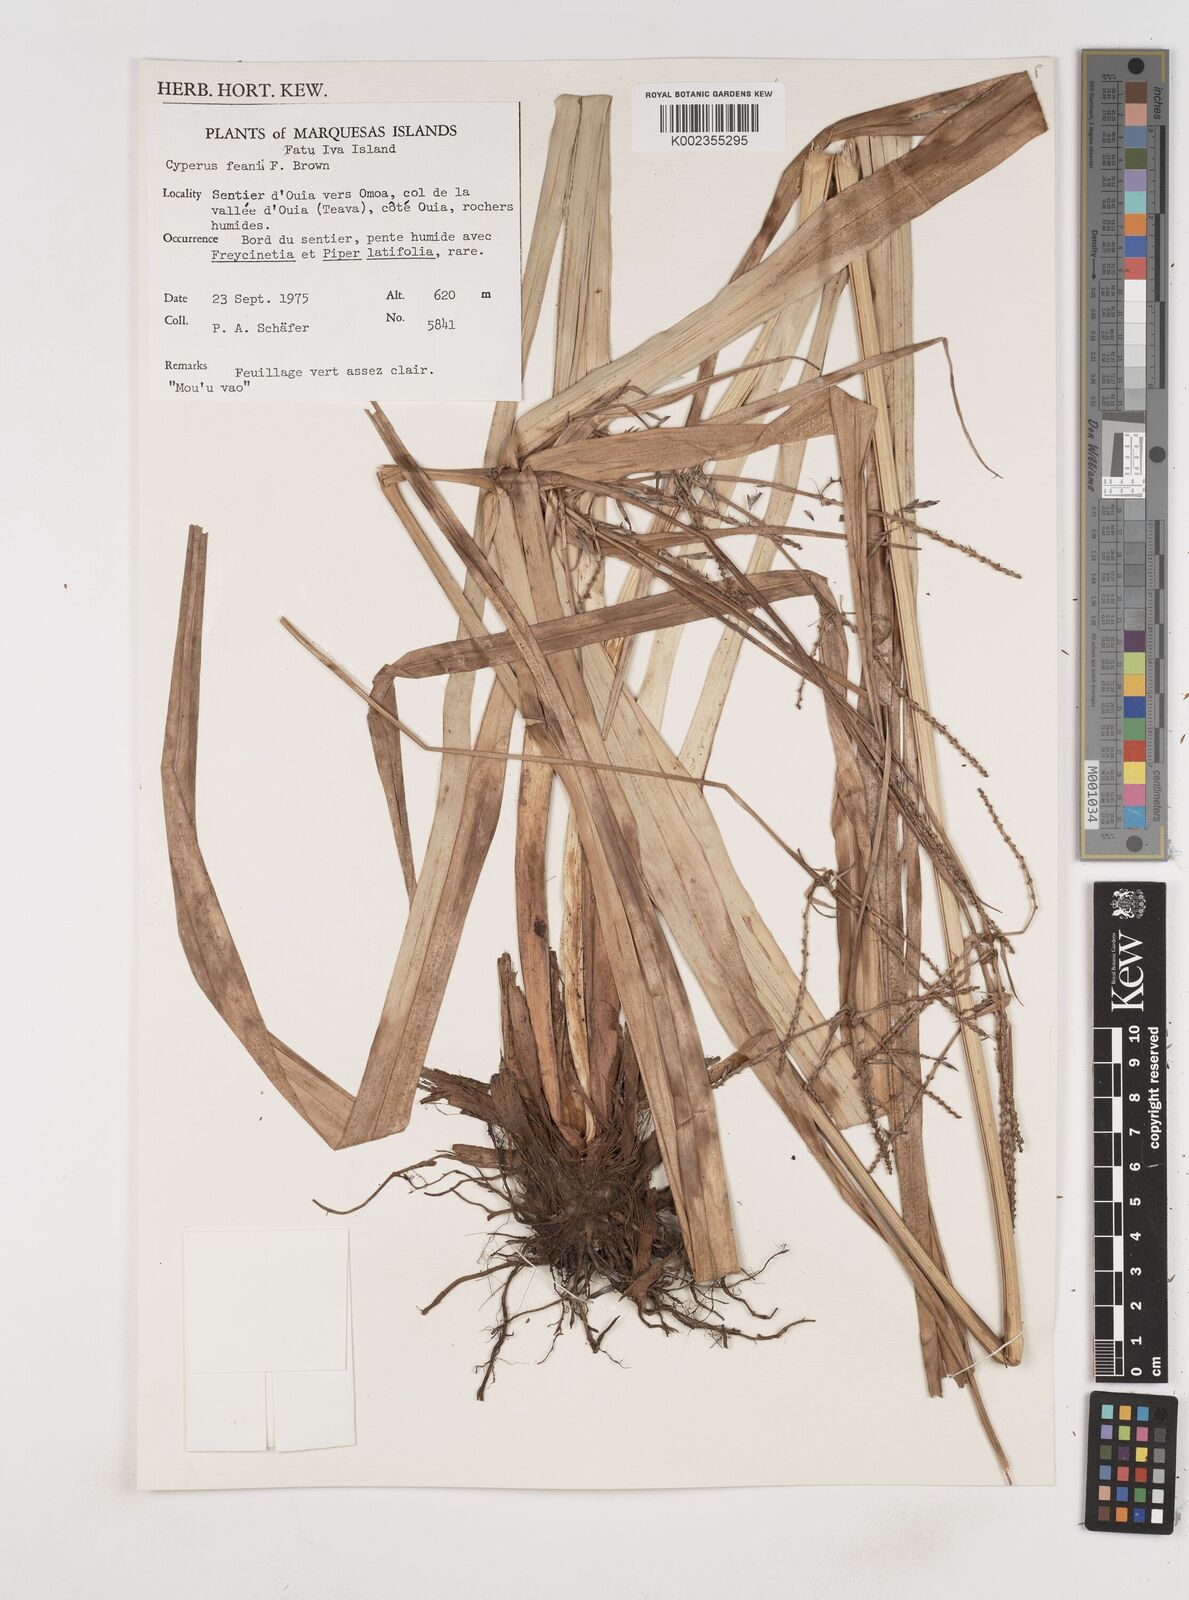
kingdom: Plantae
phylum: Tracheophyta
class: Liliopsida
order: Poales
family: Cyperaceae
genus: Cyperus
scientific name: Cyperus feani
